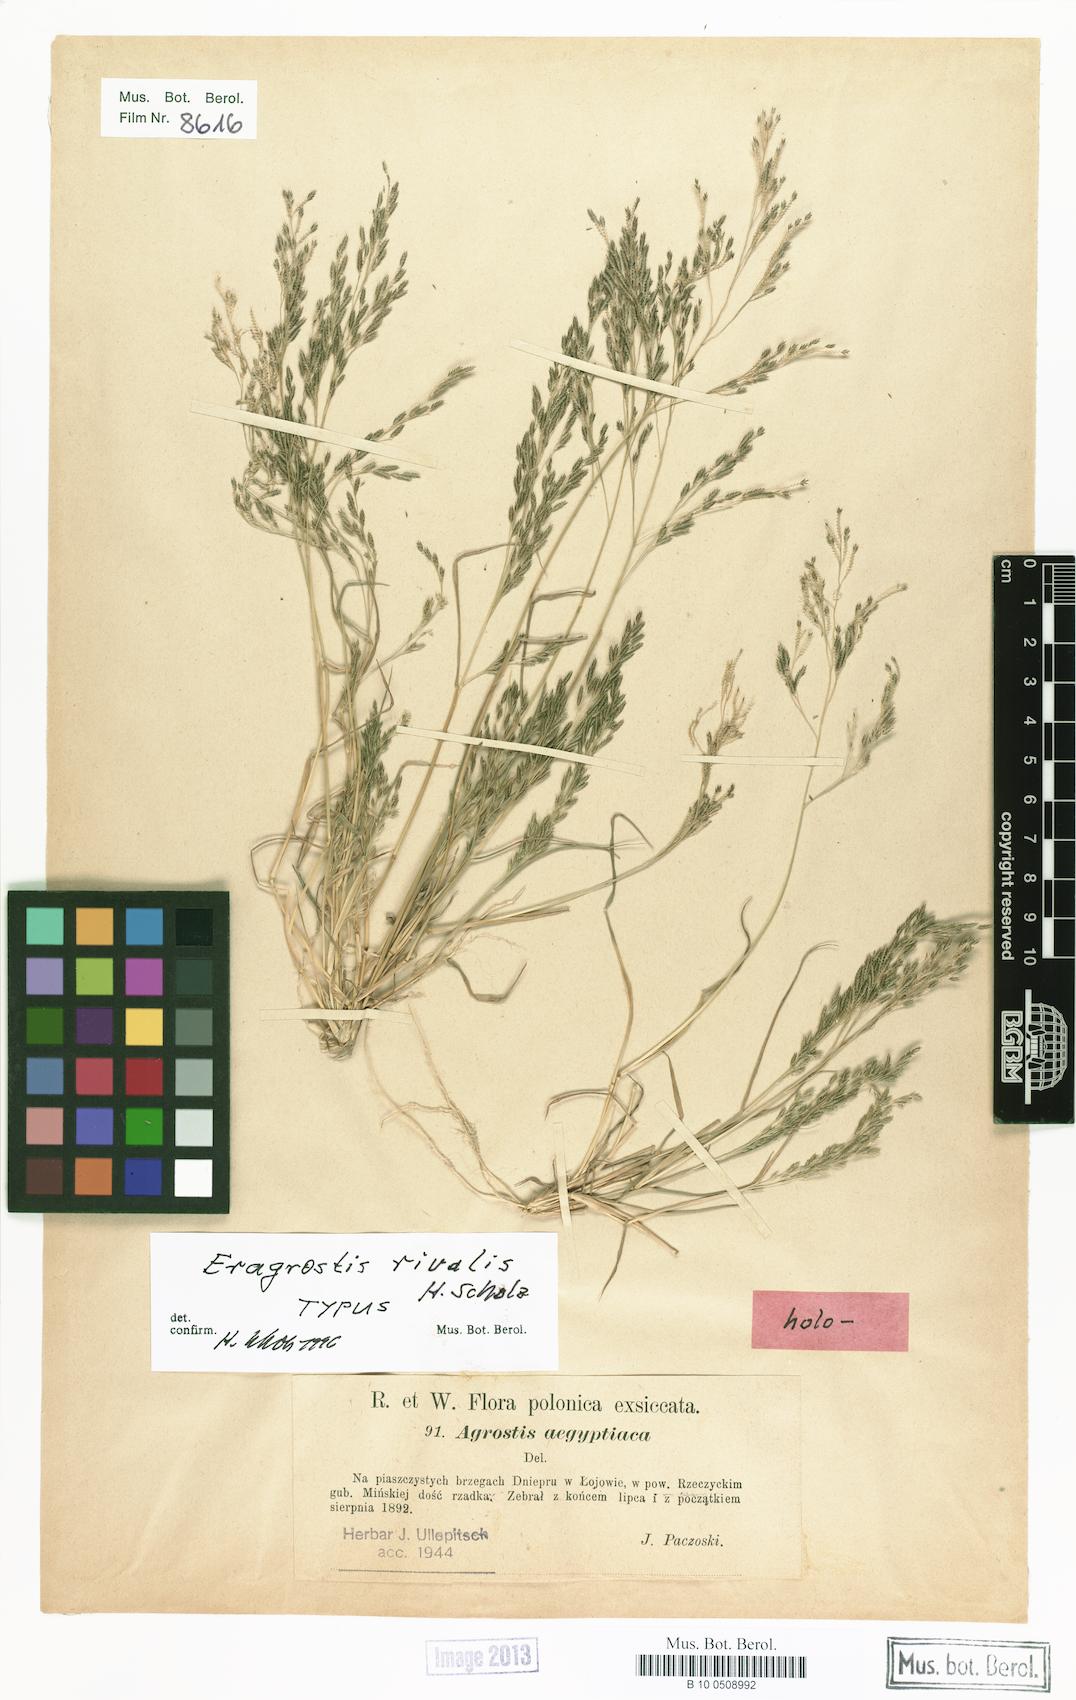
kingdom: Plantae
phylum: Tracheophyta
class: Liliopsida
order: Poales
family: Poaceae
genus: Eragrostis
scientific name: Eragrostis rivalis
